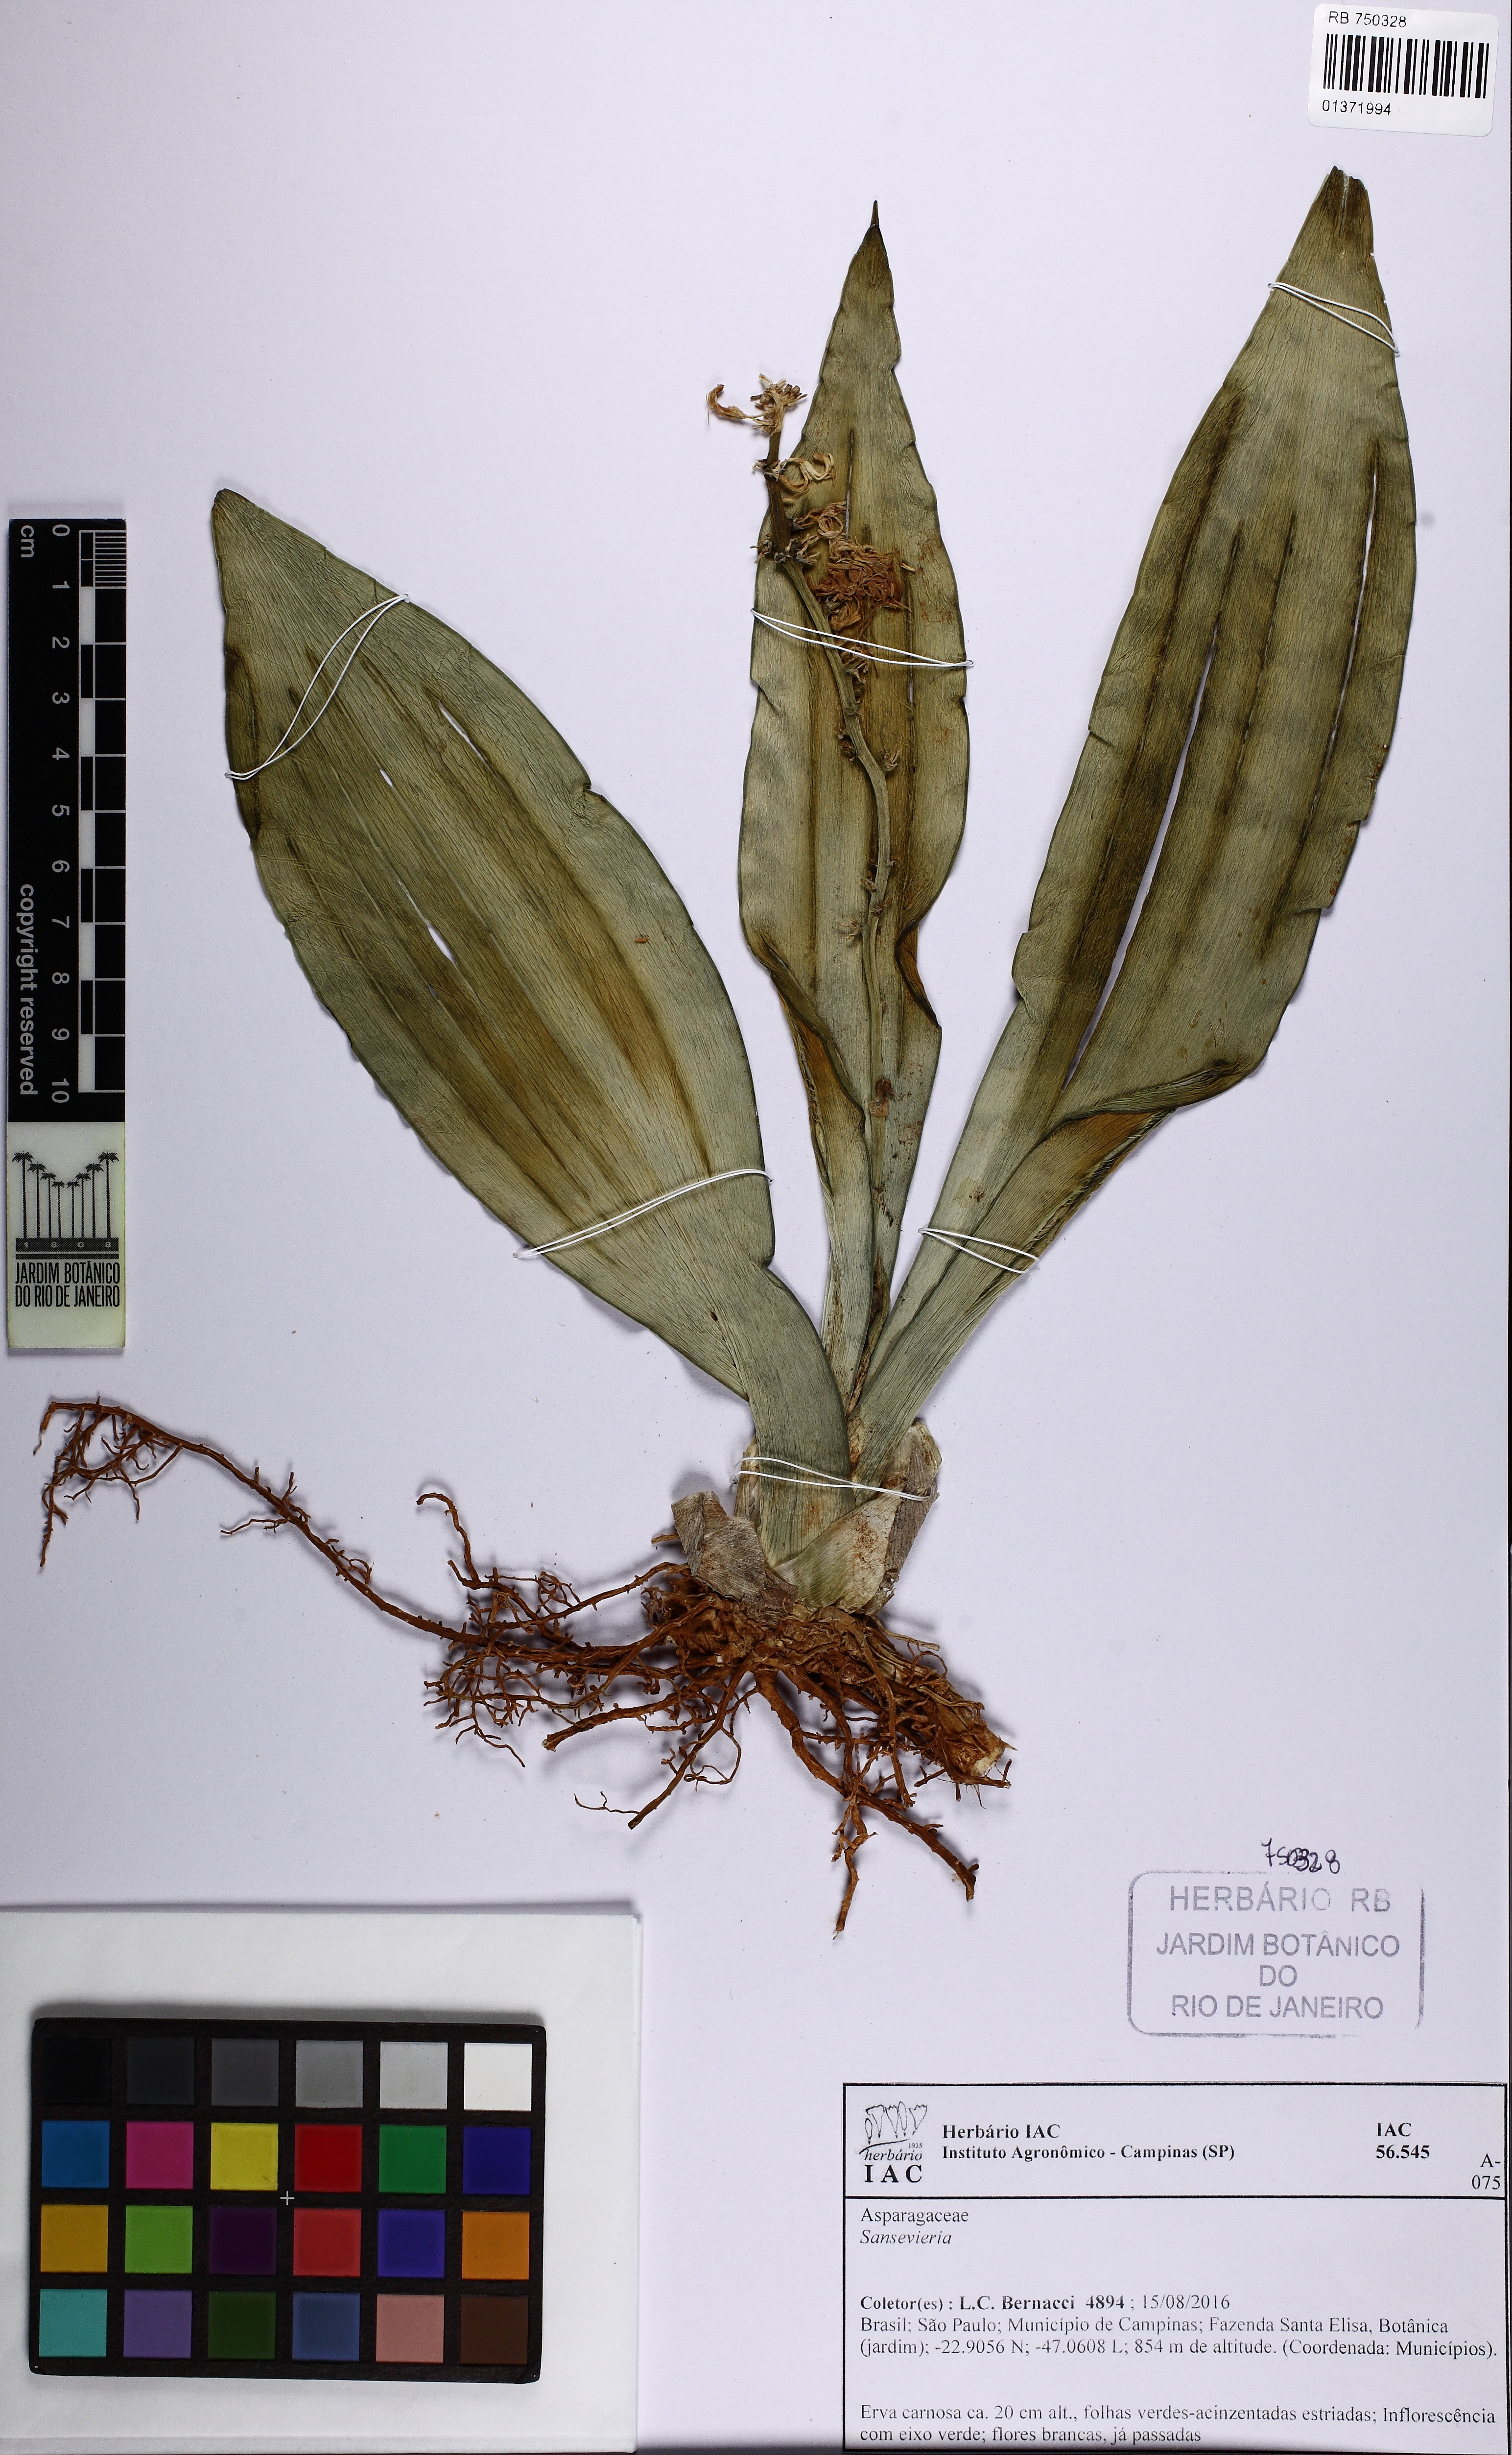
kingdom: Plantae
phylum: Tracheophyta
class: Liliopsida
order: Asparagales
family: Asparagaceae
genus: Sansevieria
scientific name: Sansevieria
